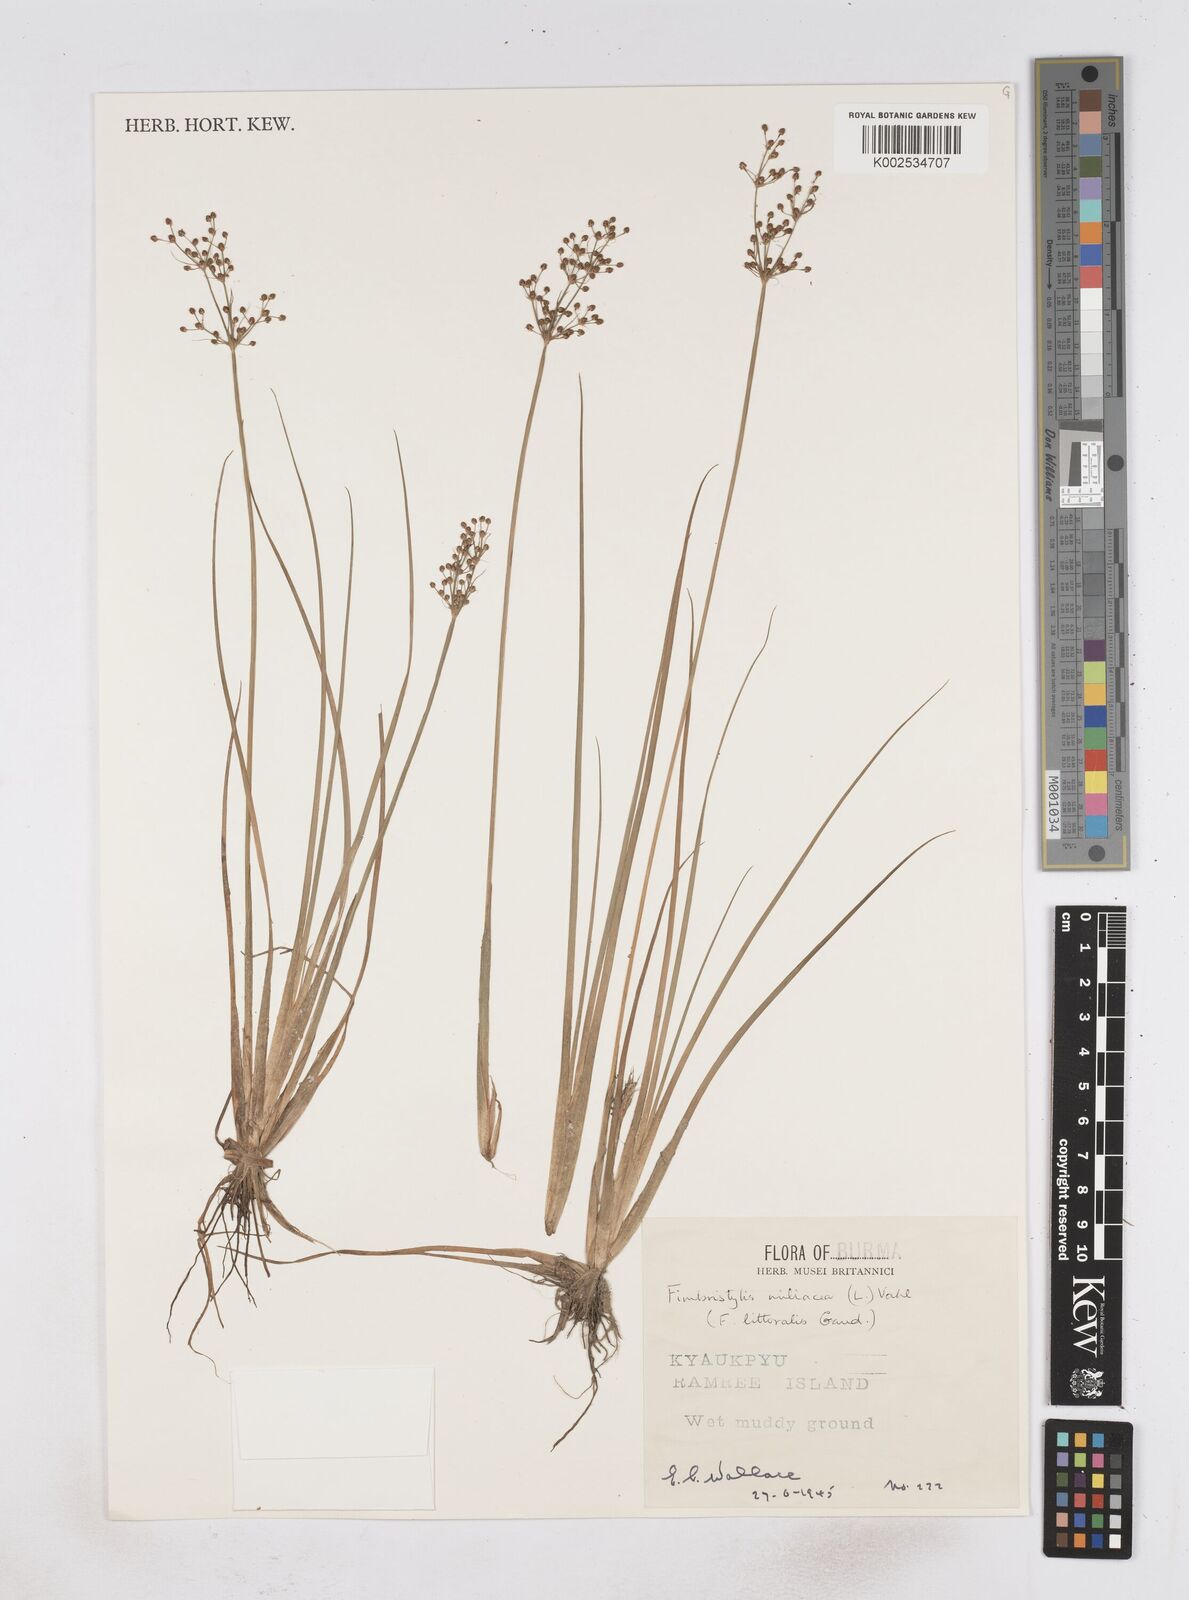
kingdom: Plantae
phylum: Tracheophyta
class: Liliopsida
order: Poales
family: Cyperaceae
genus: Fimbristylis
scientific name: Fimbristylis littoralis
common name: Fimbry
